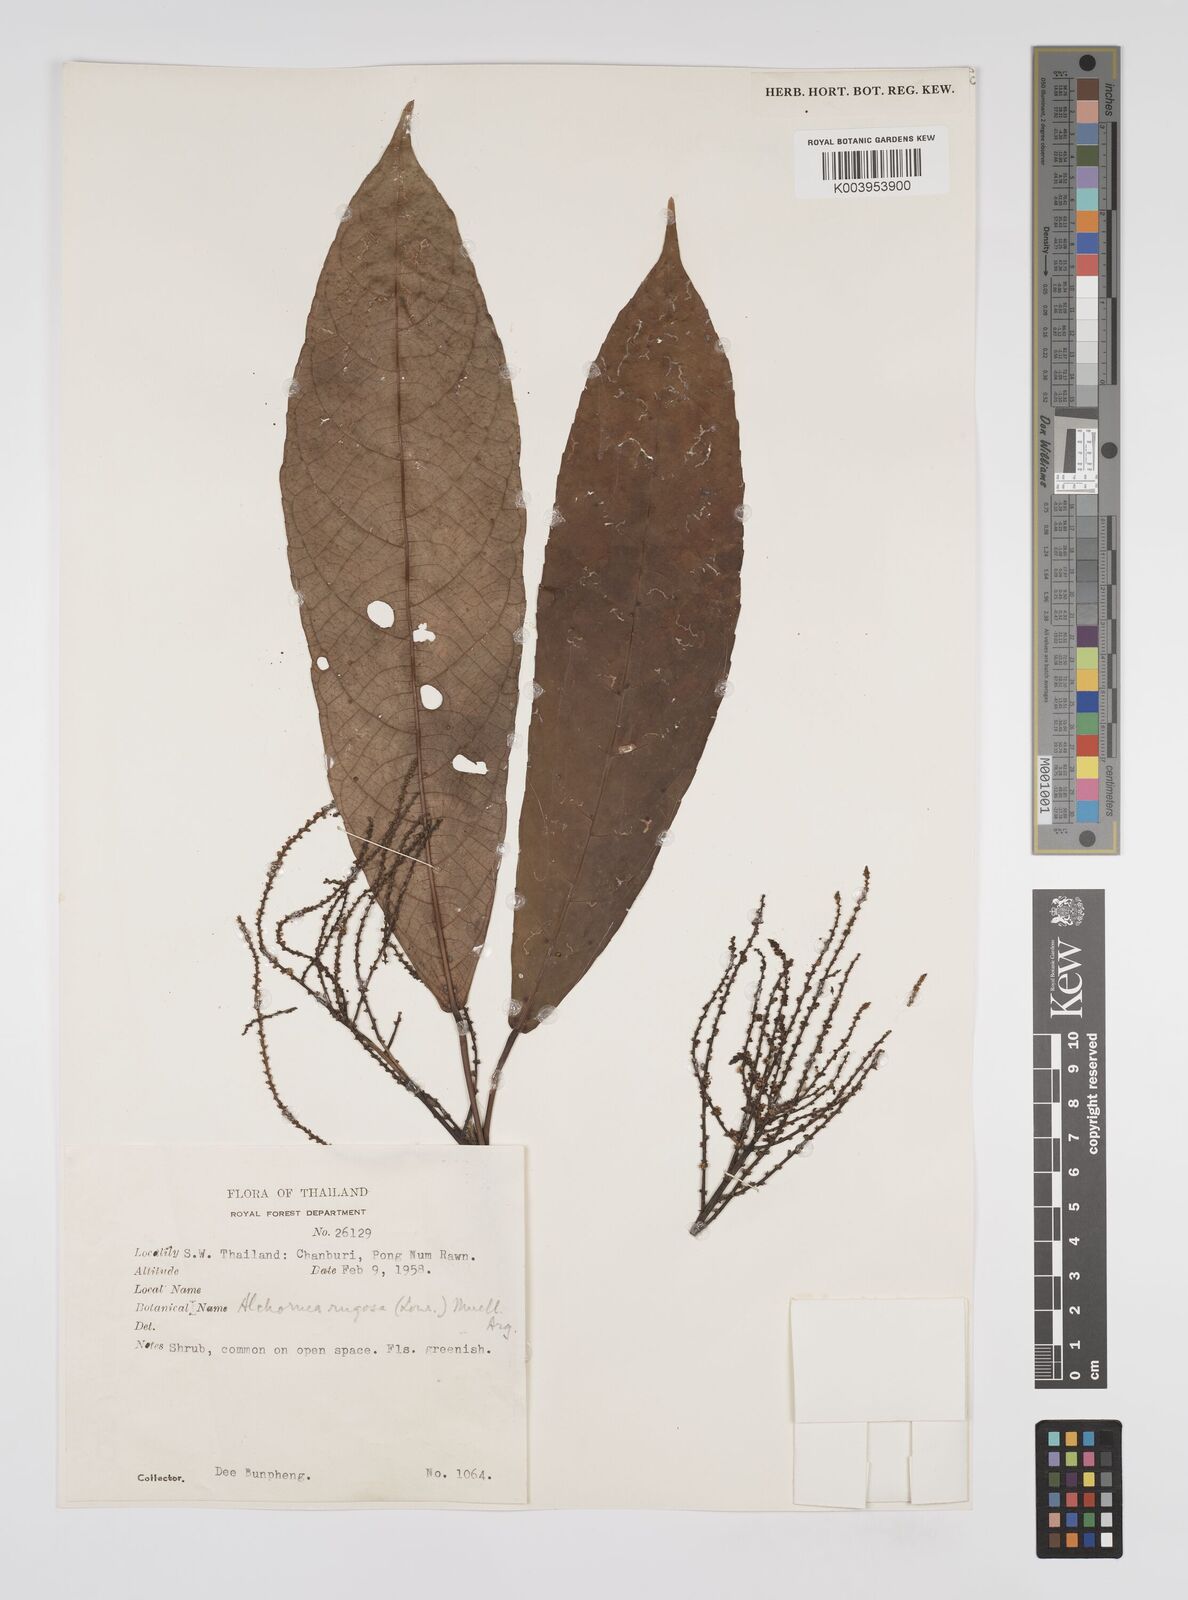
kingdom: Plantae
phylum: Tracheophyta
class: Magnoliopsida
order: Malpighiales
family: Euphorbiaceae
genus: Alchornea
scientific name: Alchornea rugosa
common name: Alchorntree
